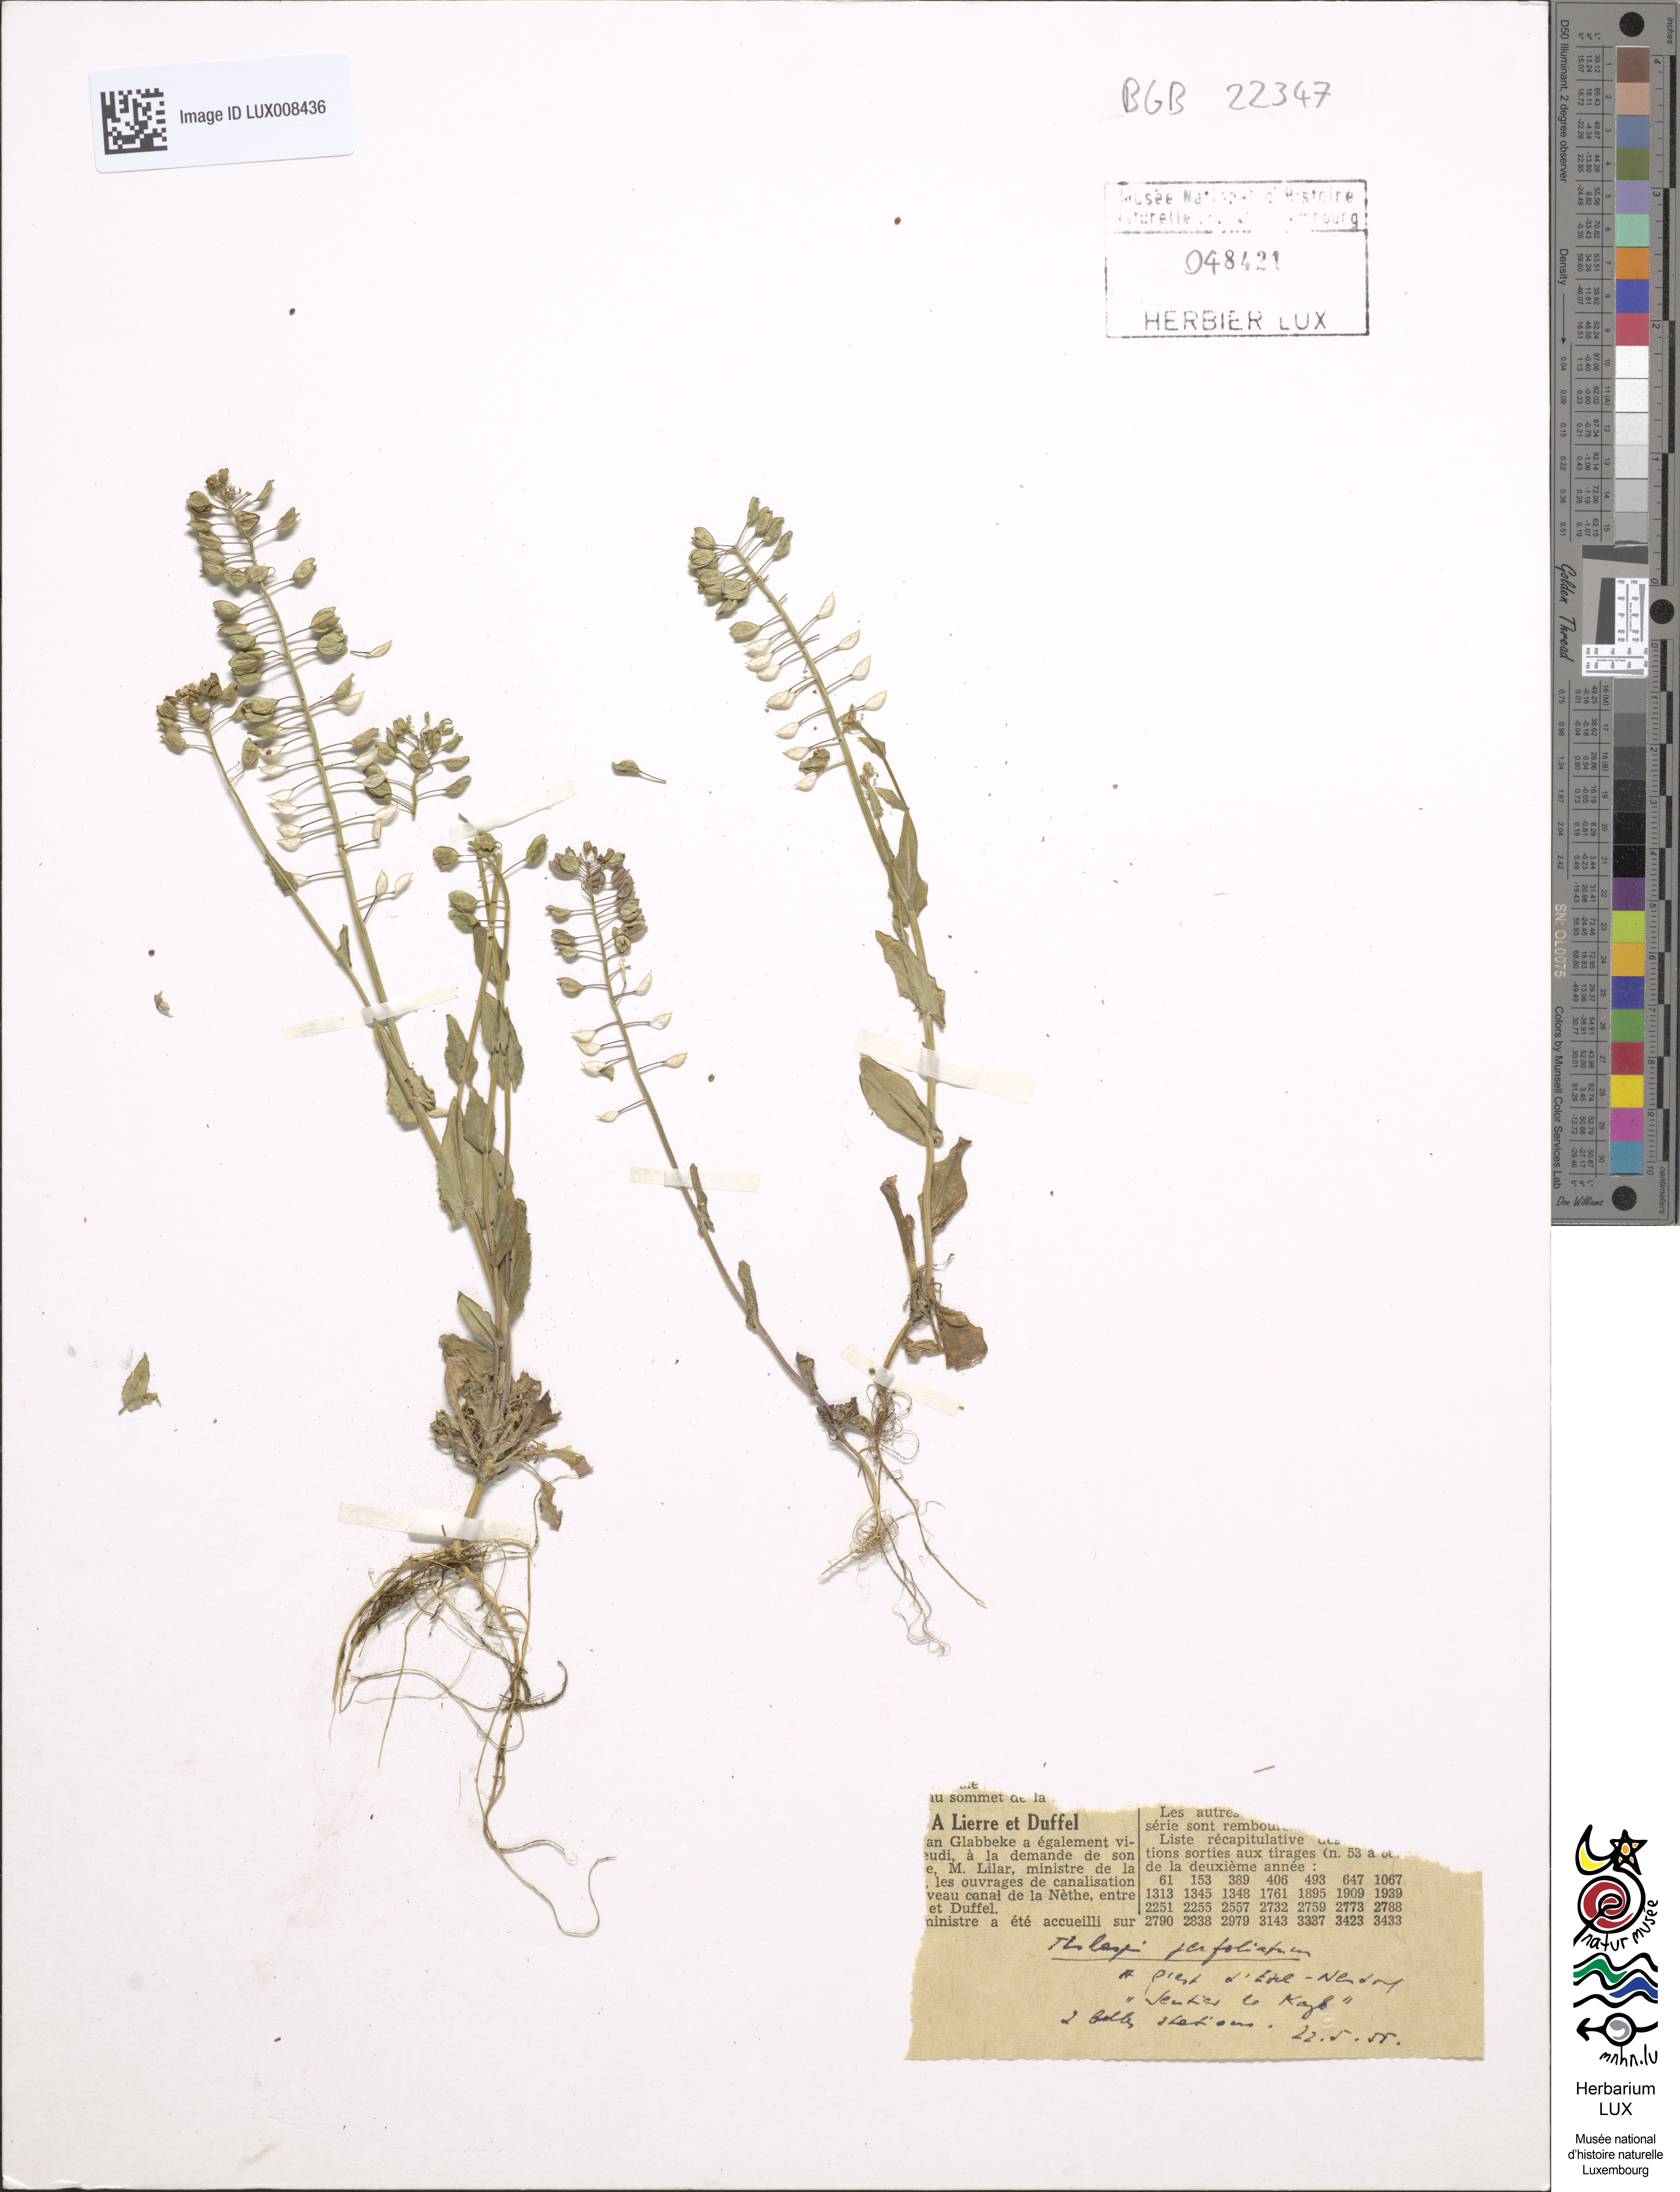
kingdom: Plantae
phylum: Tracheophyta
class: Magnoliopsida
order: Brassicales
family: Brassicaceae
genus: Noccaea
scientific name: Noccaea perfoliata
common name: Perfoliate pennycress
